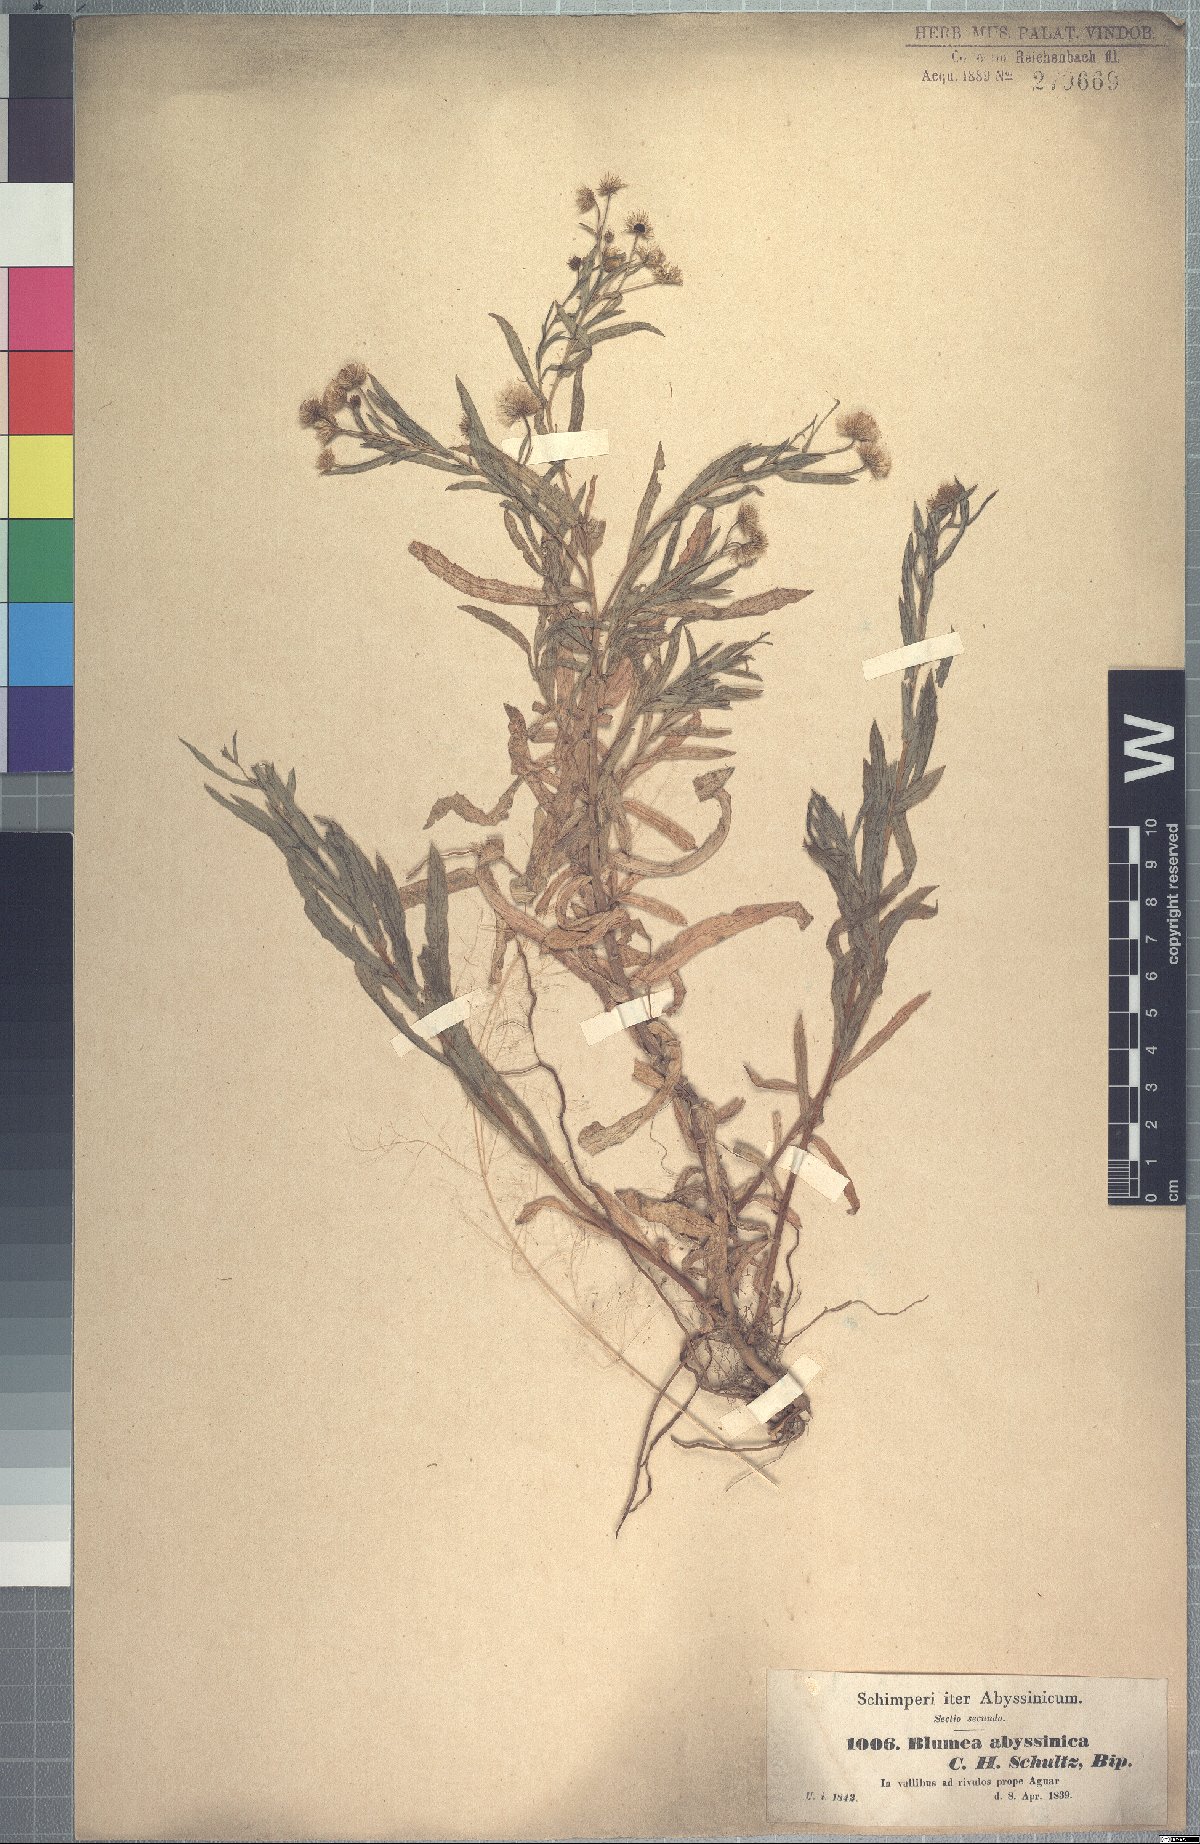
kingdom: Plantae
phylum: Tracheophyta
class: Magnoliopsida
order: Asterales
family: Asteraceae
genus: Doellia
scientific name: Doellia bovei
